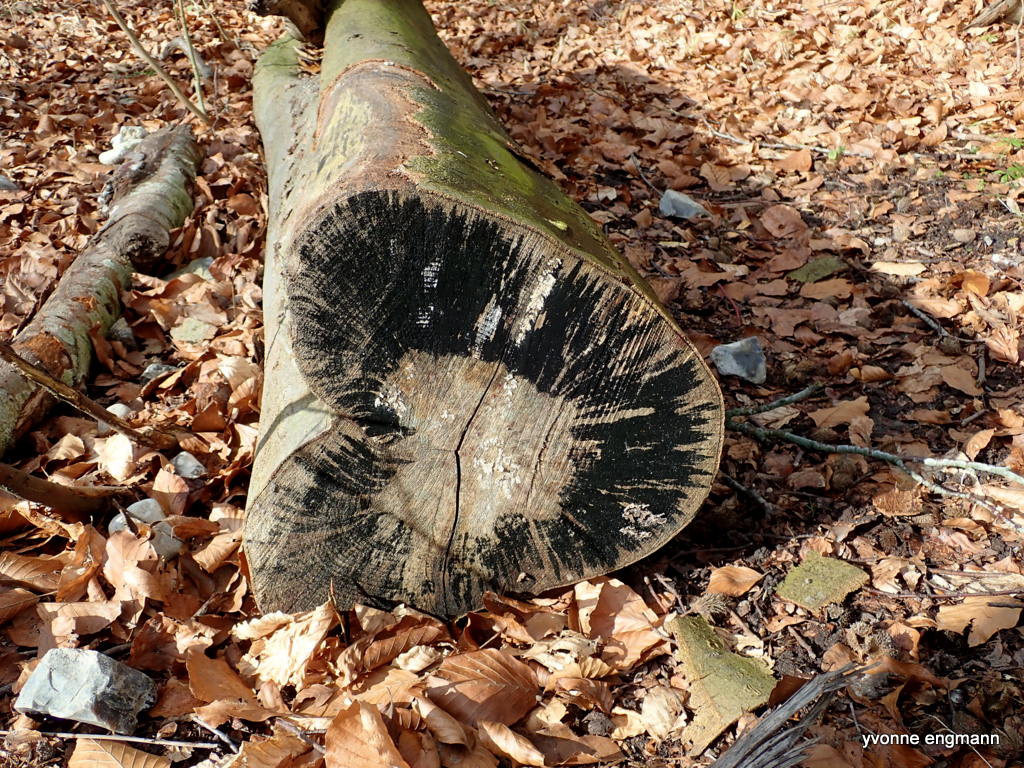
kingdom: Fungi
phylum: Ascomycota
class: Leotiomycetes
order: Helotiales
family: Helotiaceae
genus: Bispora
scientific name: Bispora pallescens
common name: måtte-snitskive
